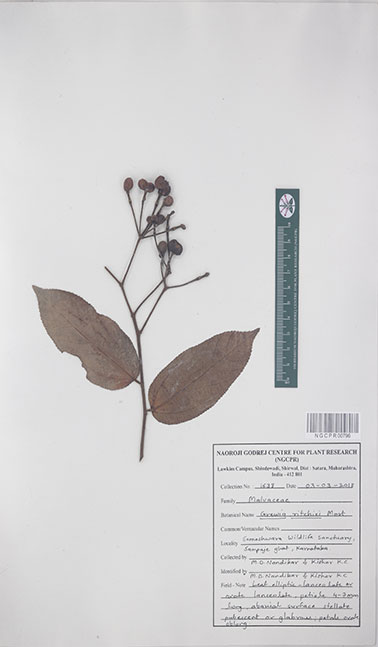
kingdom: Plantae
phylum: Tracheophyta
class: Magnoliopsida
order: Malvales
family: Malvaceae
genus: Grewia
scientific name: Grewia ritchiei
